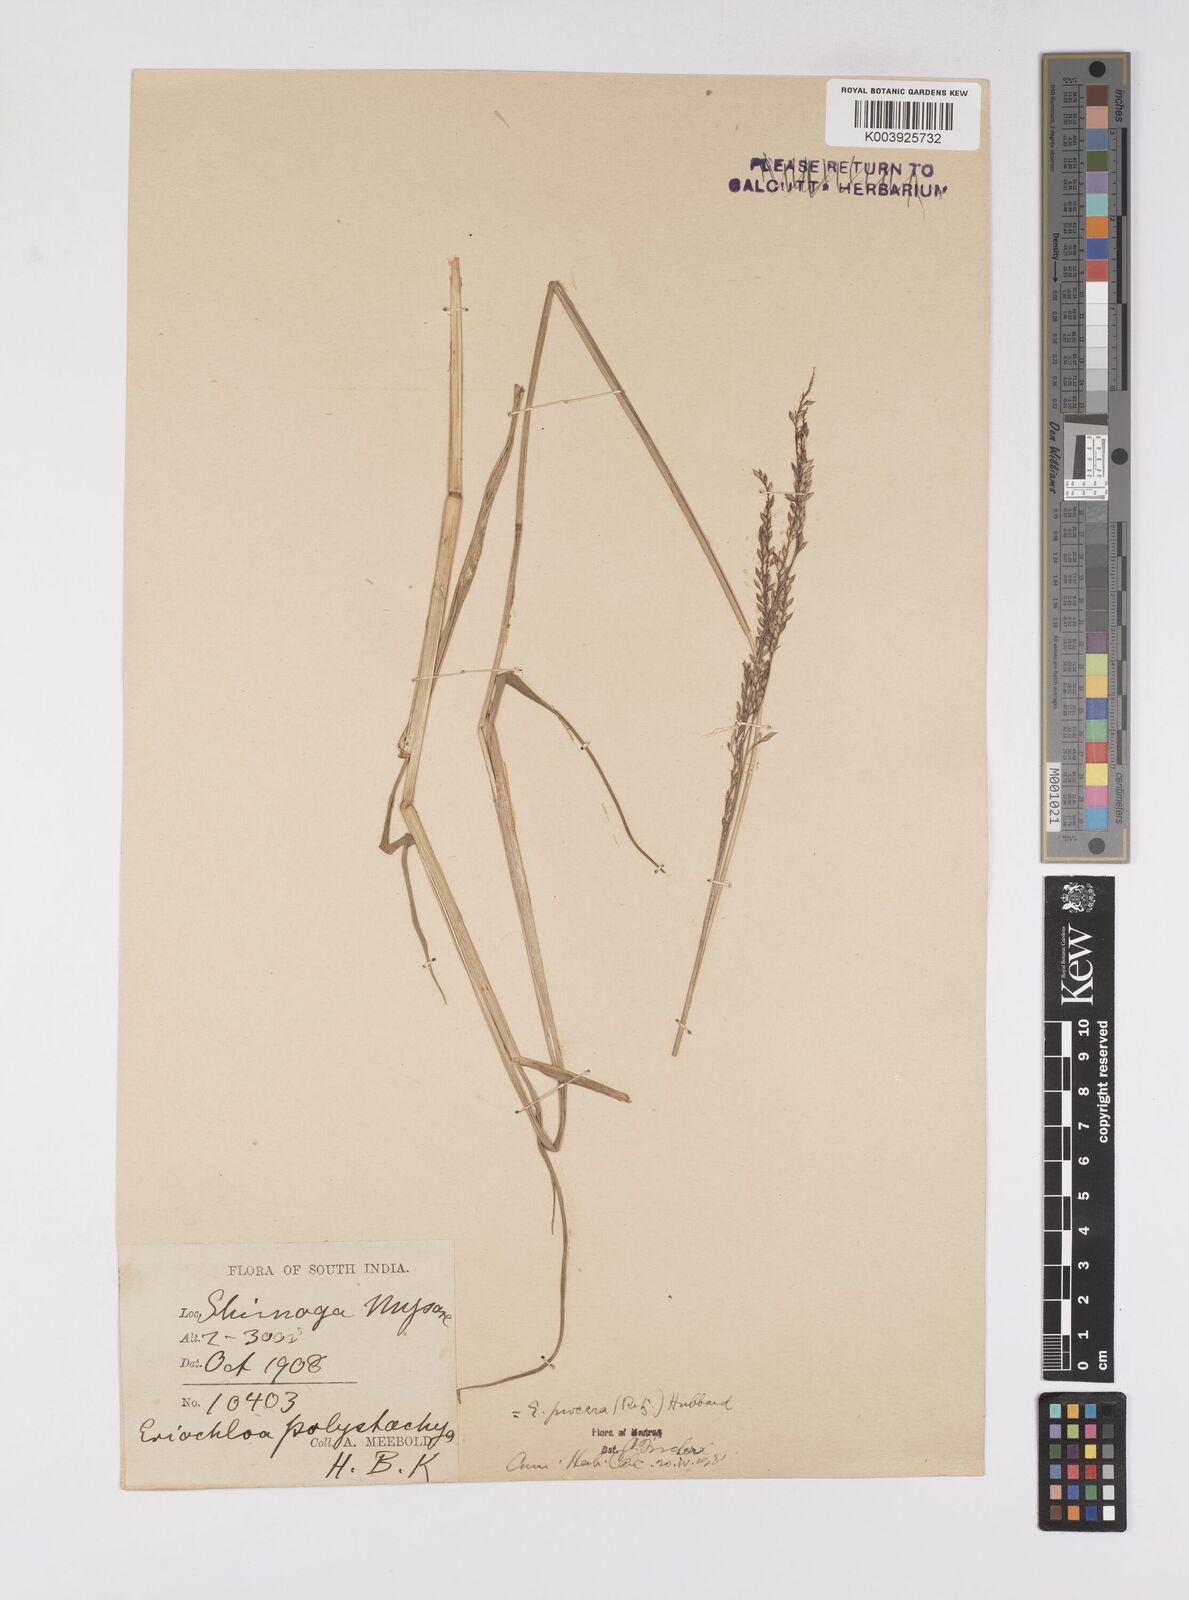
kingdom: Plantae
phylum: Tracheophyta
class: Liliopsida
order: Poales
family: Poaceae
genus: Eriochloa
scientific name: Eriochloa procera
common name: Spring grass
